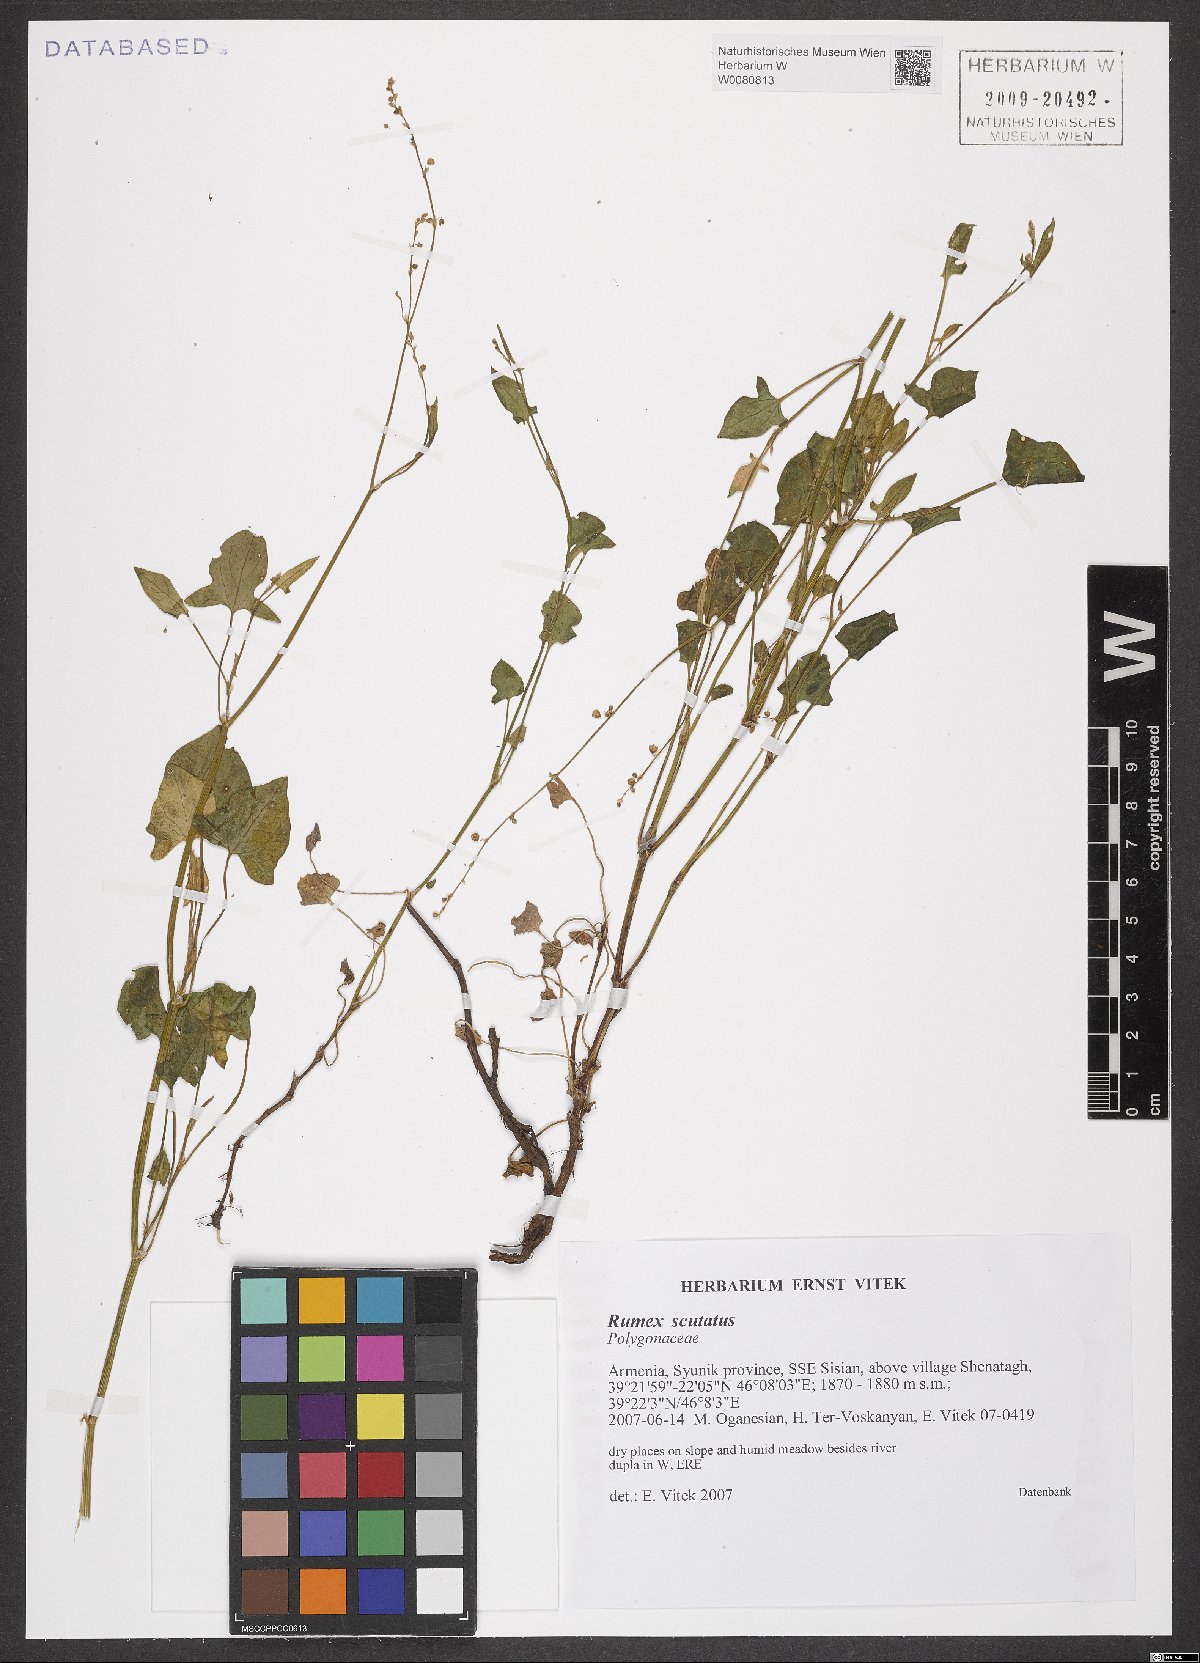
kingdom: Plantae
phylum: Tracheophyta
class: Magnoliopsida
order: Caryophyllales
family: Polygonaceae
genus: Rumex
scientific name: Rumex scutatus
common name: French sorrel
